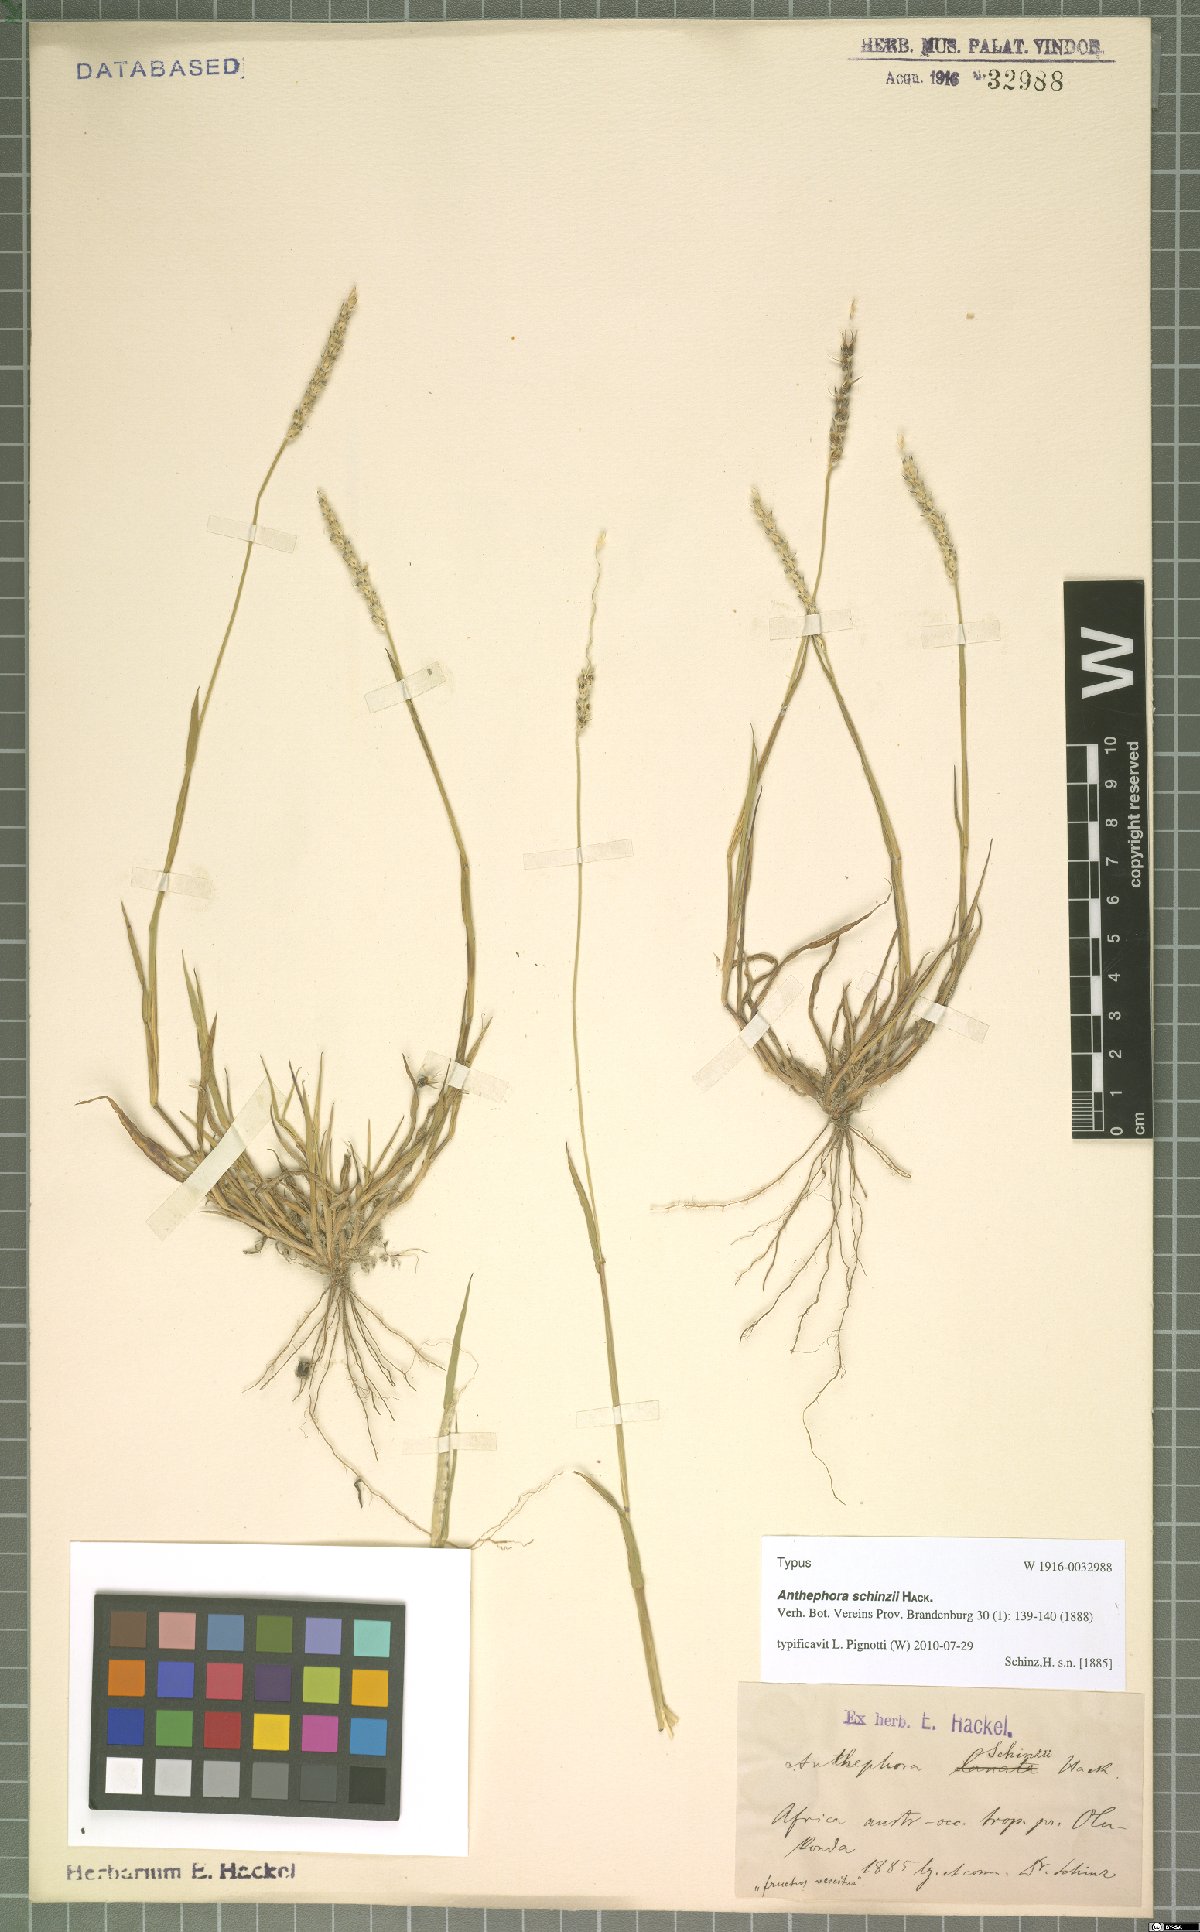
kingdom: Plantae
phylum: Tracheophyta
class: Liliopsida
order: Poales
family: Poaceae
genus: Anthephora
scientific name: Anthephora schinzii
